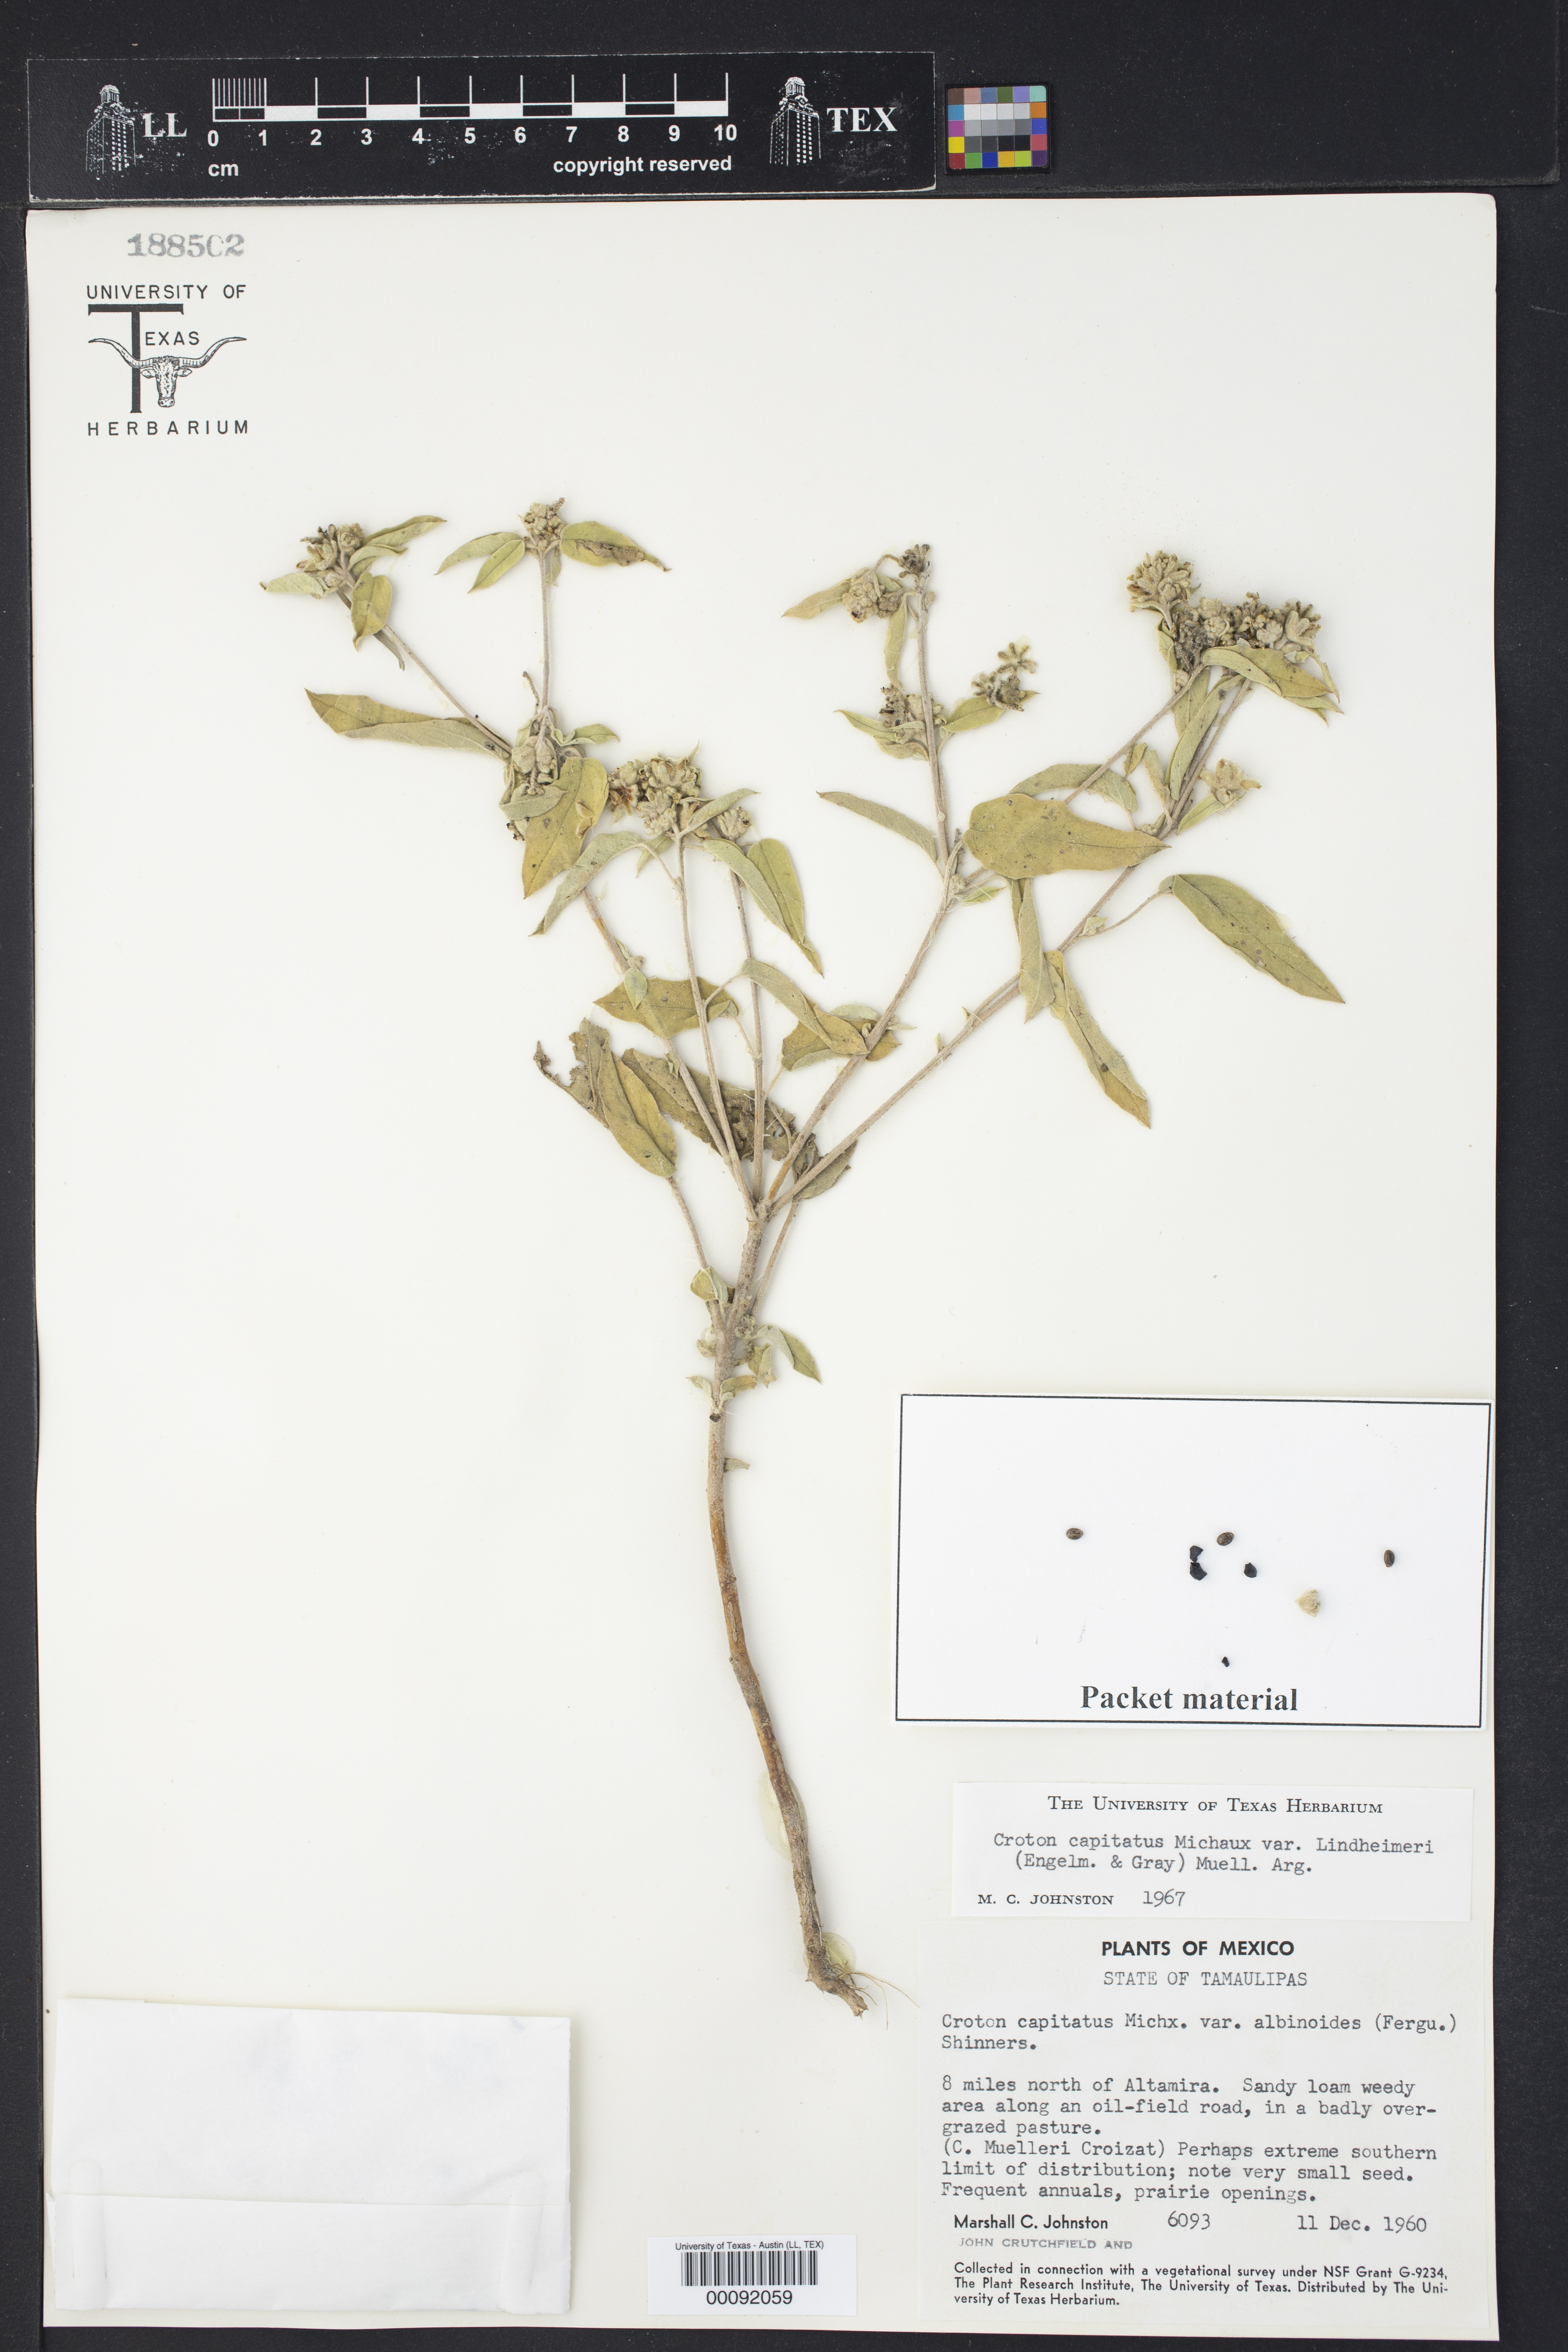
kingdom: Plantae
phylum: Tracheophyta
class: Magnoliopsida
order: Malpighiales
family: Euphorbiaceae
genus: Croton
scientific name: Croton capitatus
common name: Woolly croton
